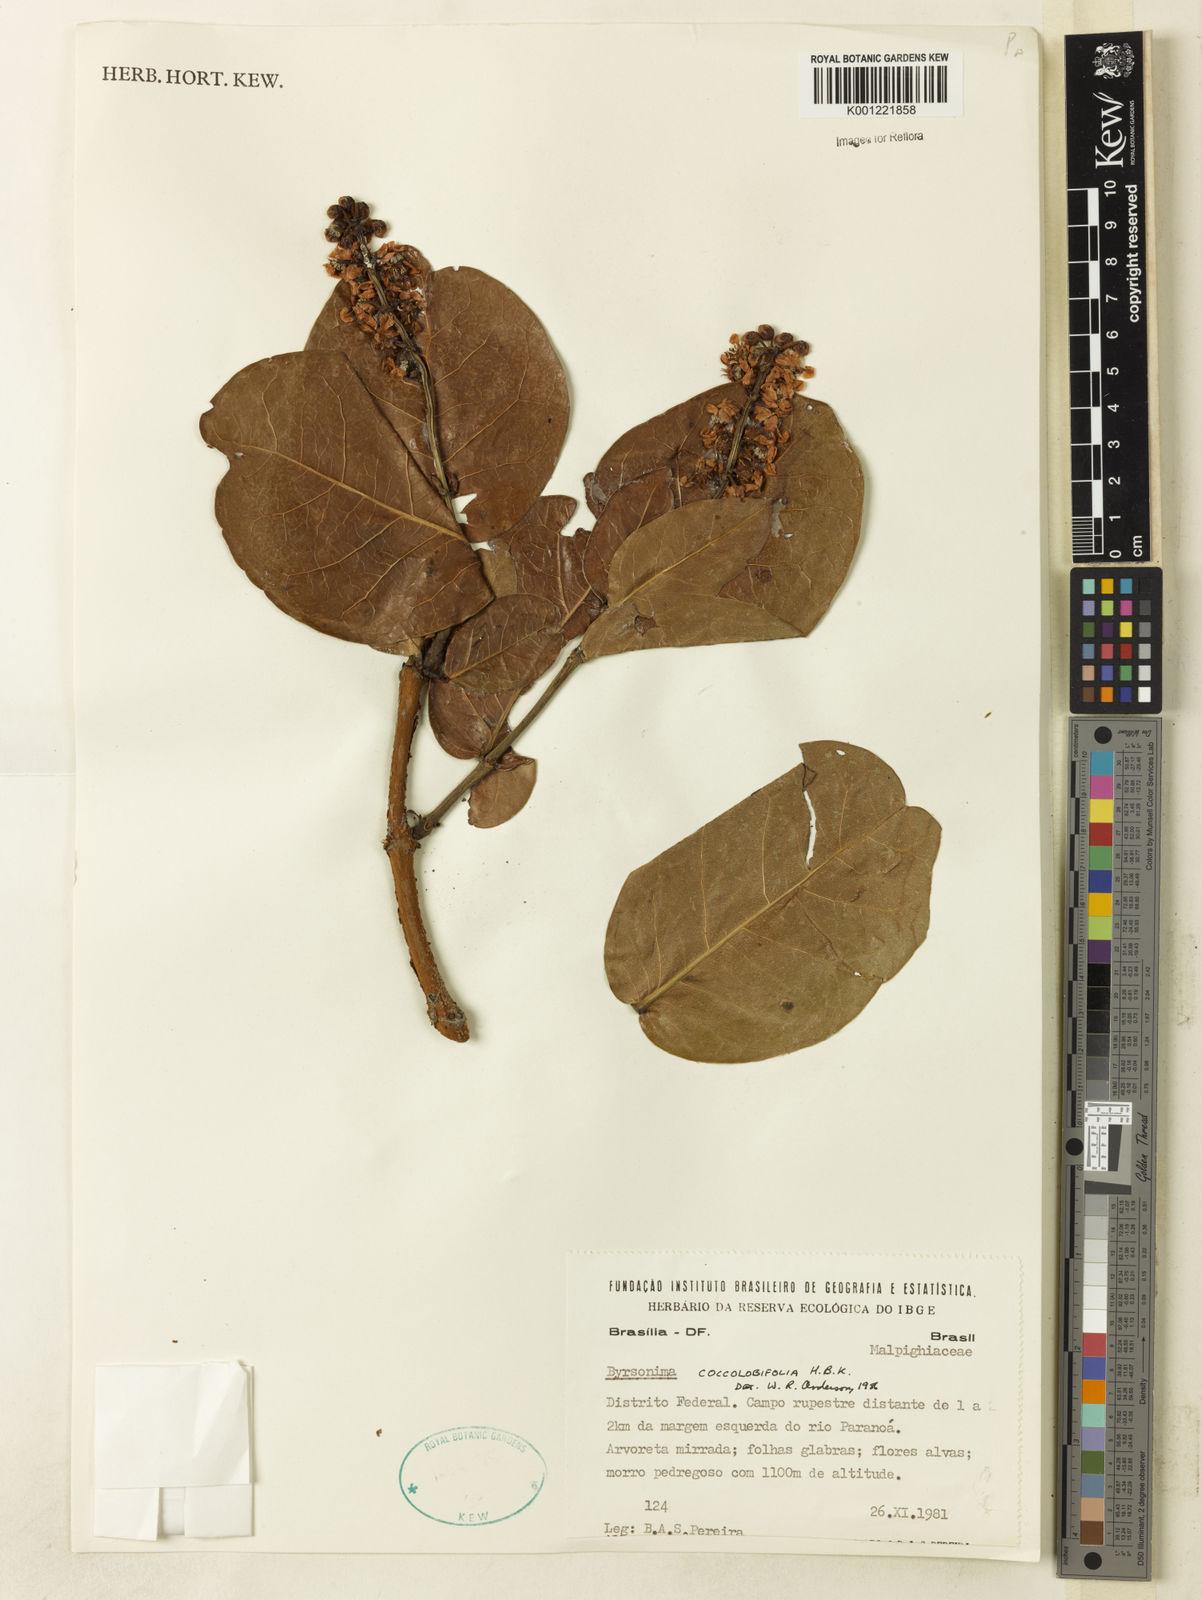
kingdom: Plantae
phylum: Tracheophyta
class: Magnoliopsida
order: Malpighiales
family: Malpighiaceae
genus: Byrsonima
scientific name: Byrsonima coccolobifolia
